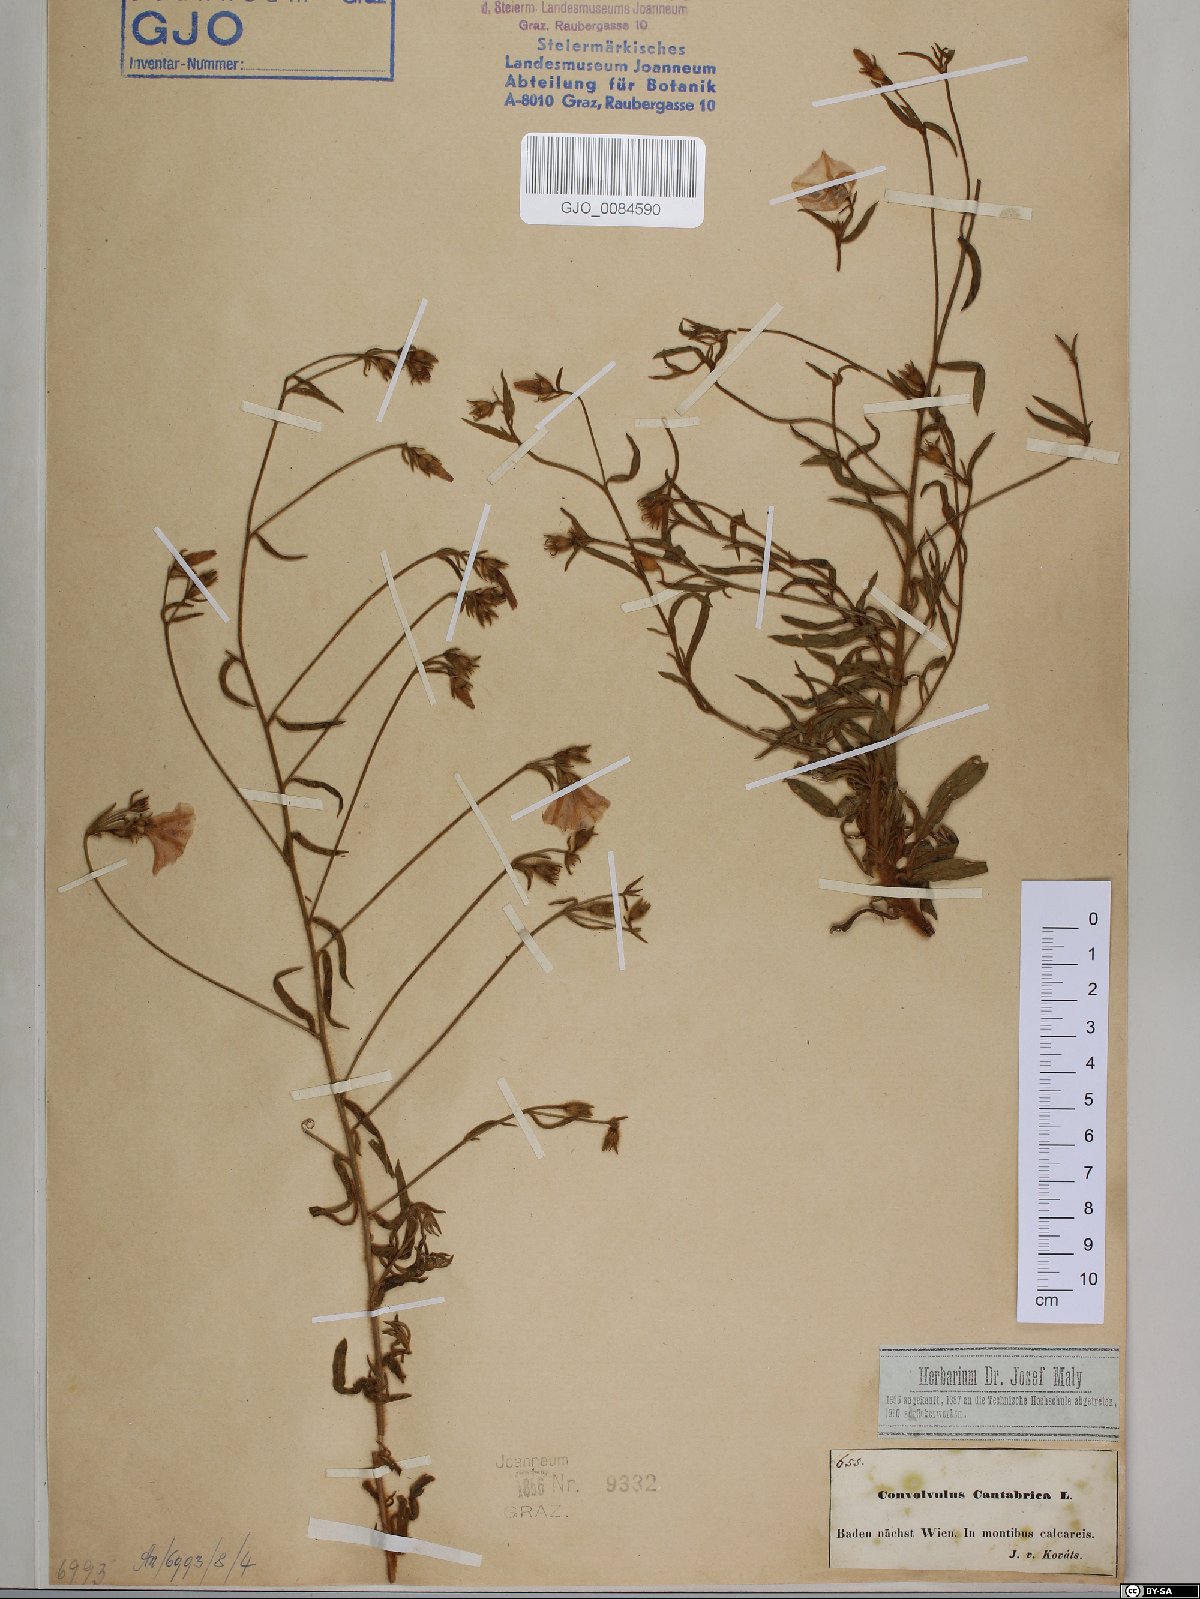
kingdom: Plantae
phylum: Tracheophyta
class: Magnoliopsida
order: Solanales
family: Convolvulaceae
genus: Convolvulus
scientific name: Convolvulus cantabrica
